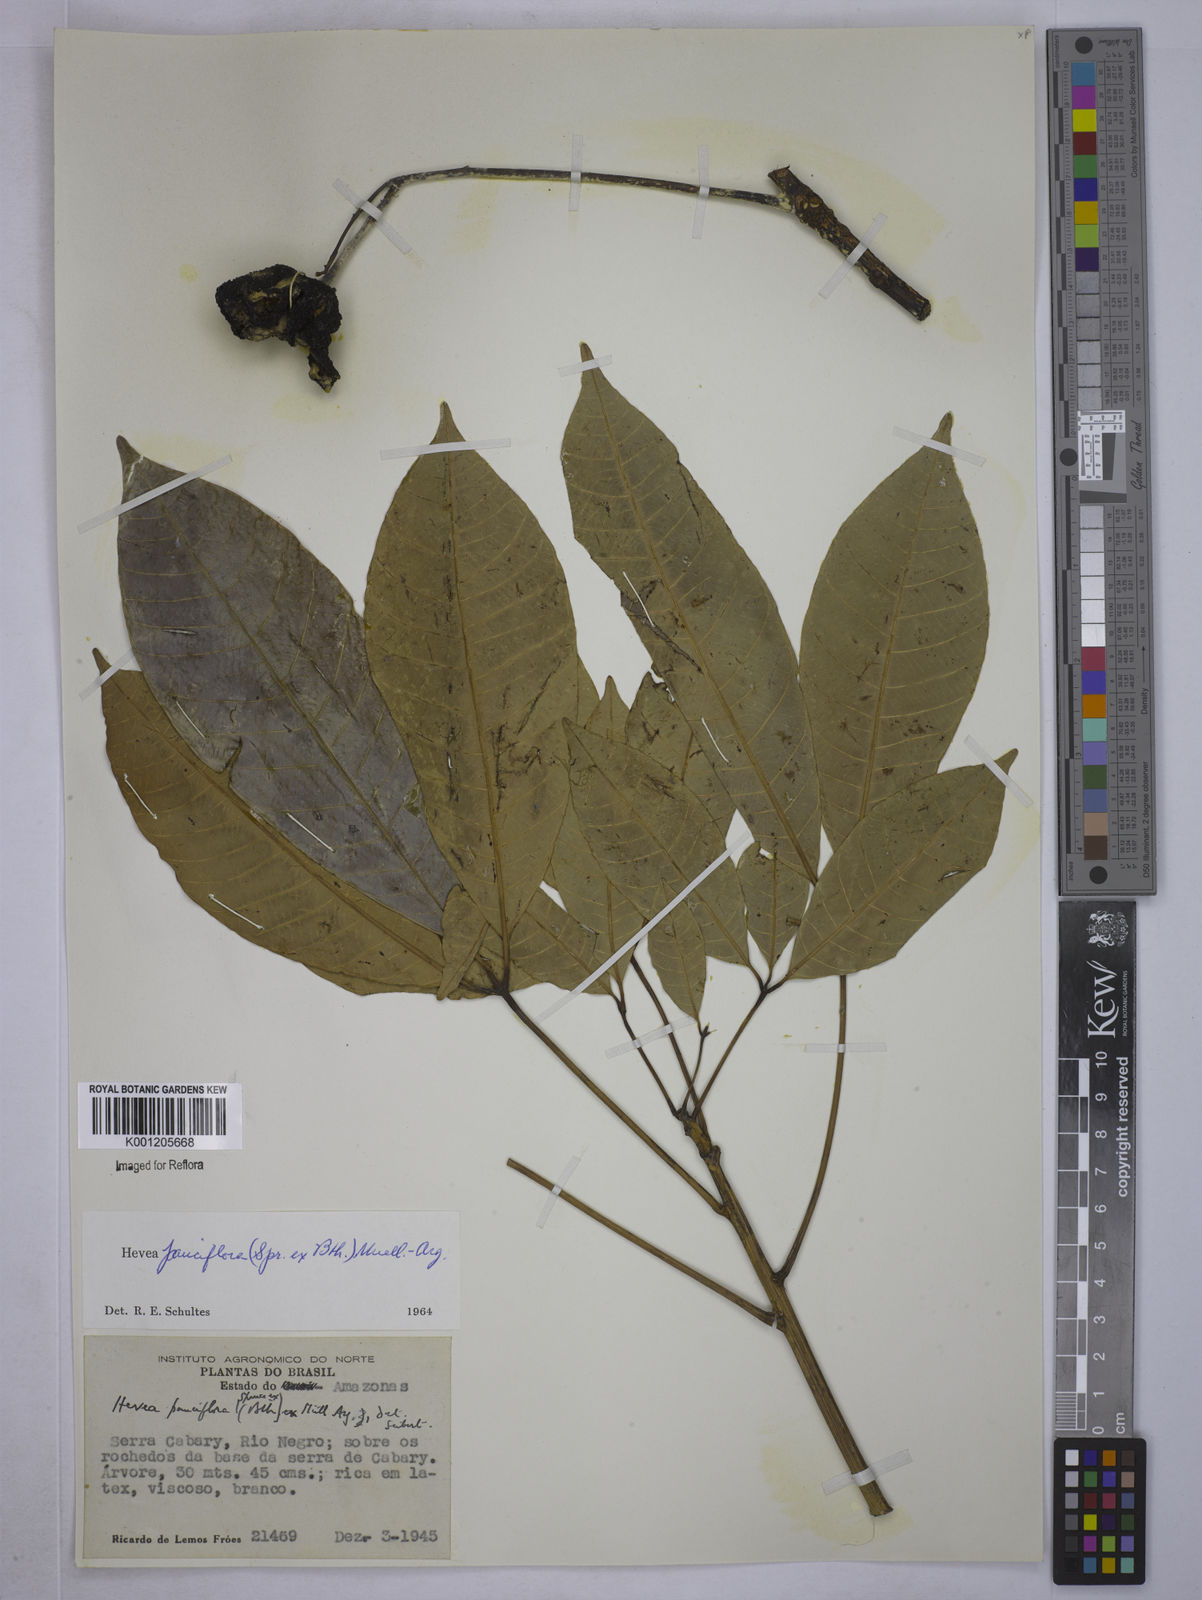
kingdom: Plantae
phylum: Tracheophyta
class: Magnoliopsida
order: Malpighiales
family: Euphorbiaceae
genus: Hevea
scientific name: Hevea pauciflora
